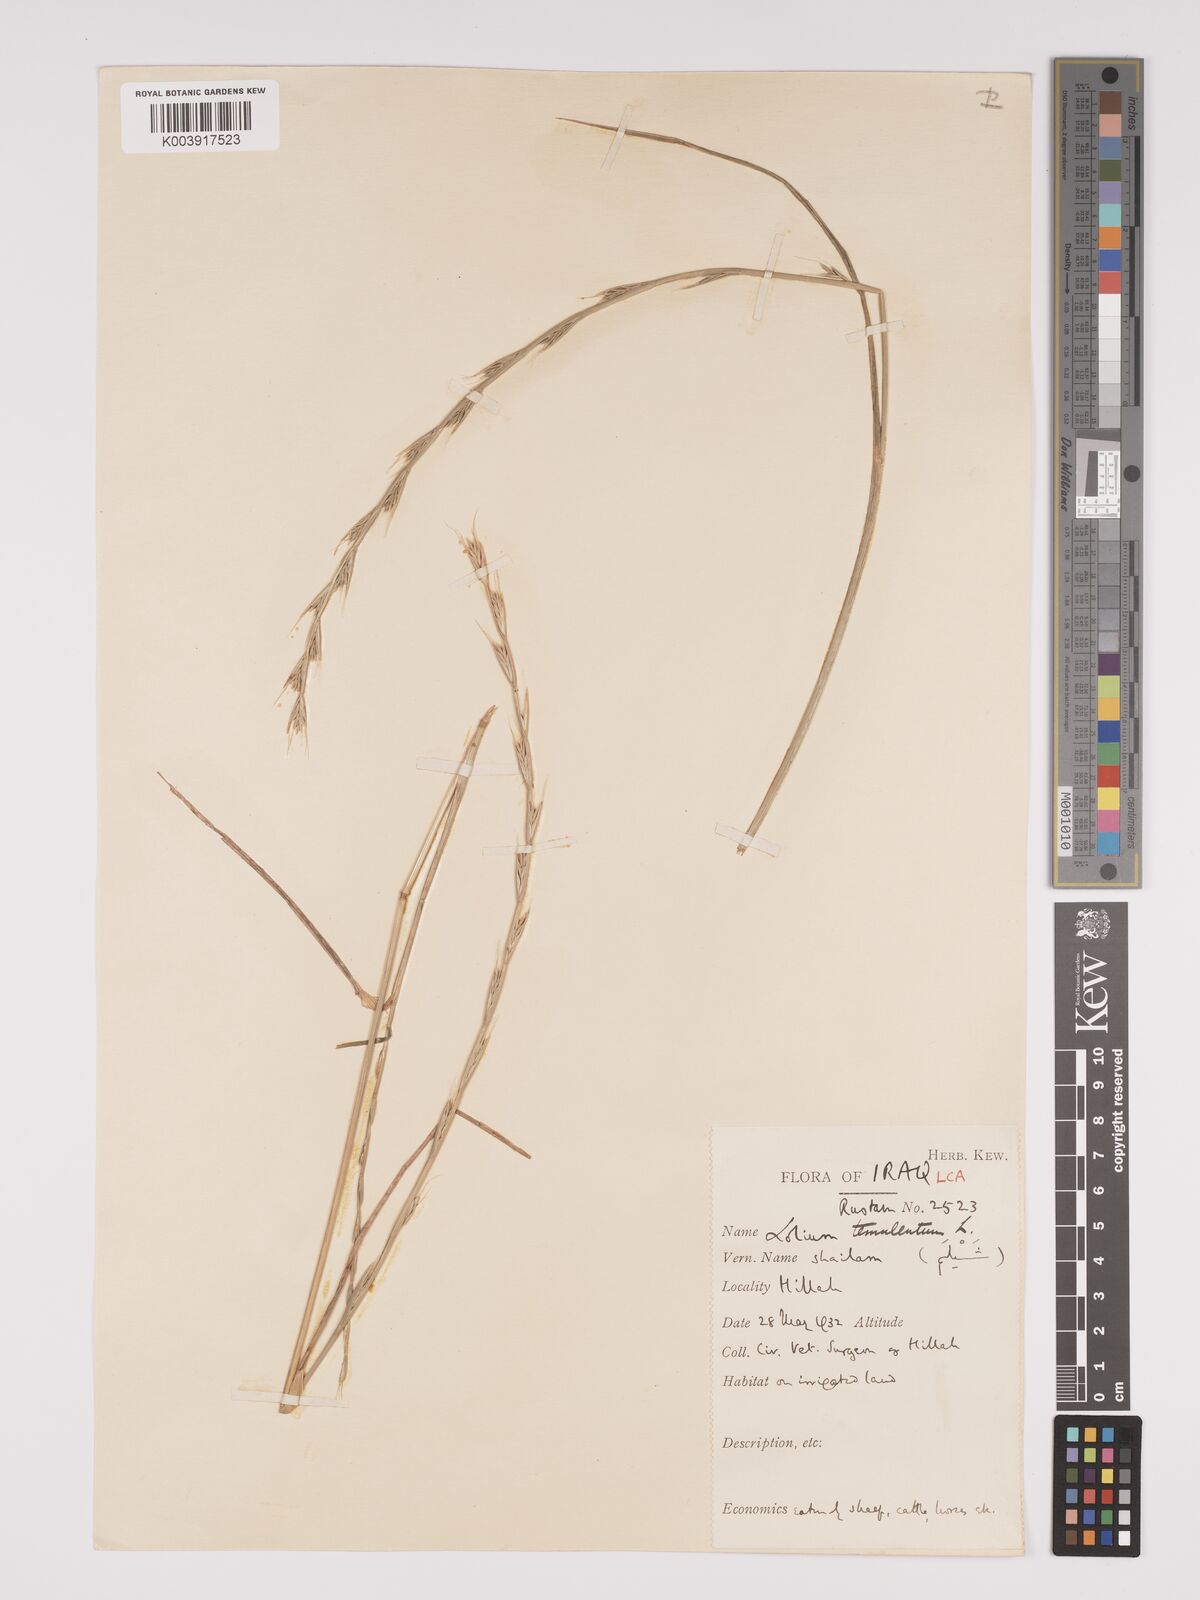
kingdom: Plantae
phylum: Tracheophyta
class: Liliopsida
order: Poales
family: Poaceae
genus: Lolium
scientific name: Lolium temulentum
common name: Darnel
